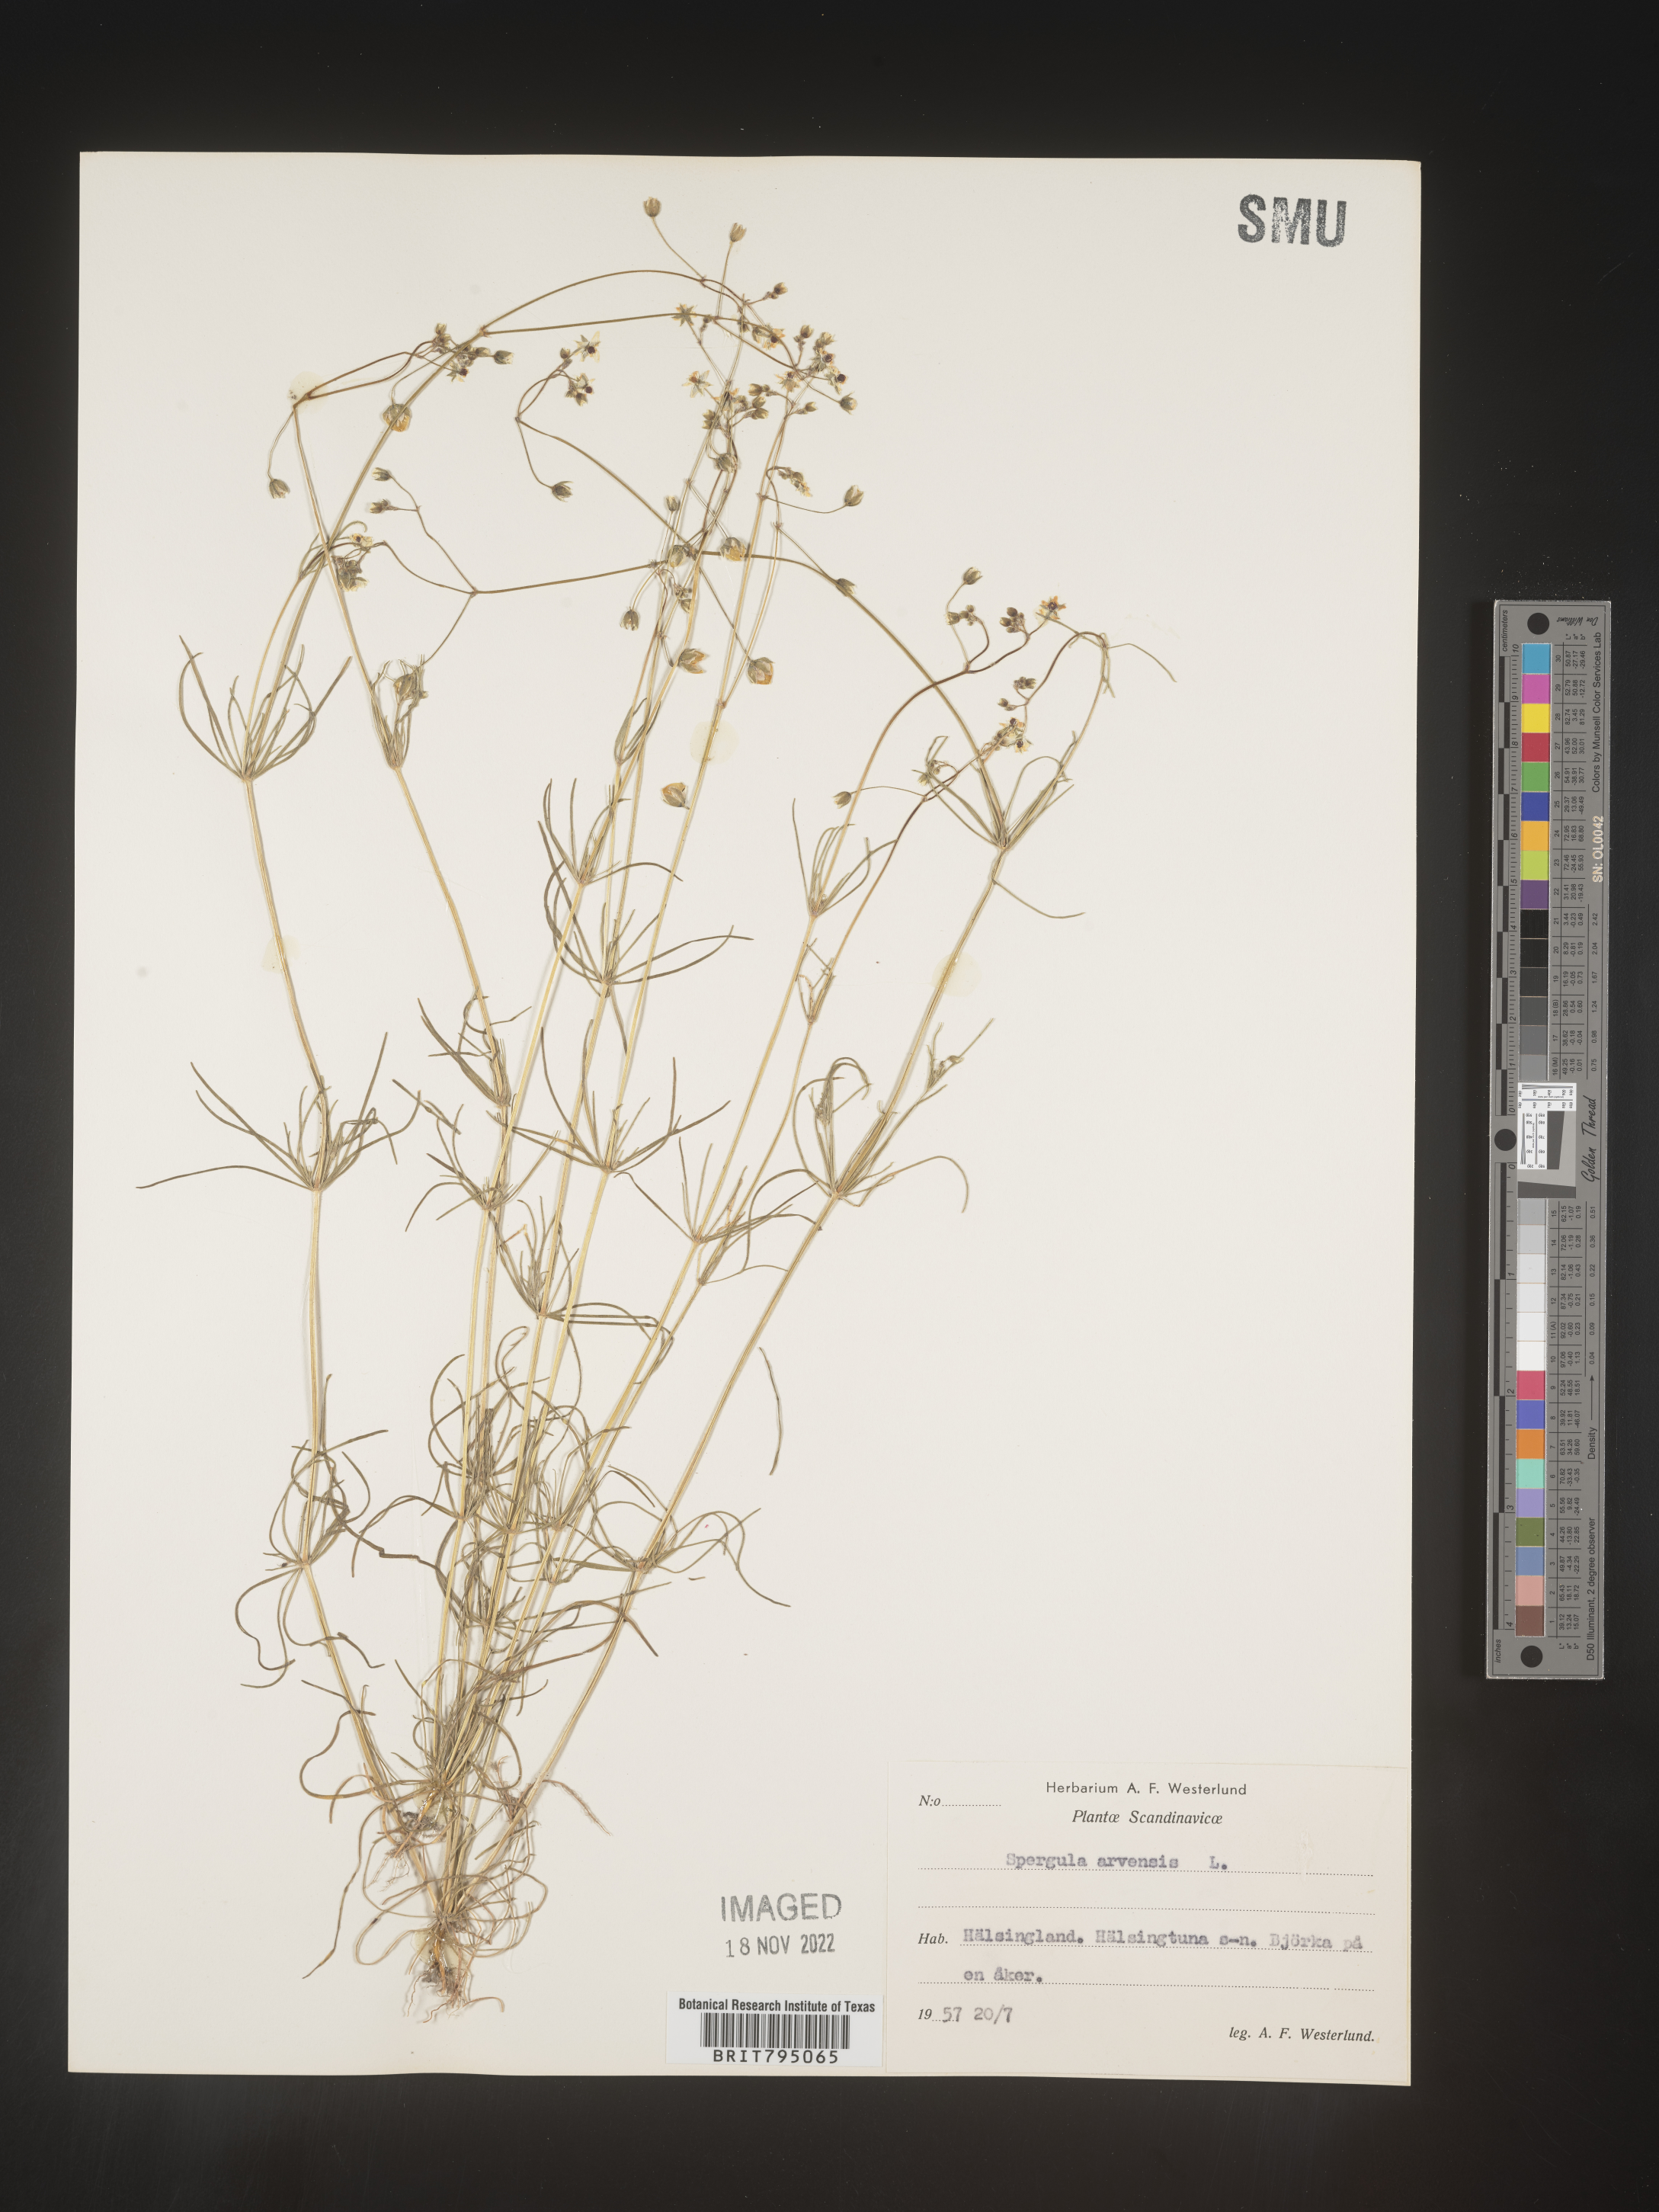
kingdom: Plantae
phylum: Tracheophyta
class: Magnoliopsida
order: Caryophyllales
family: Caryophyllaceae
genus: Spergula
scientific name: Spergula arvensis
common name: Corn spurrey
